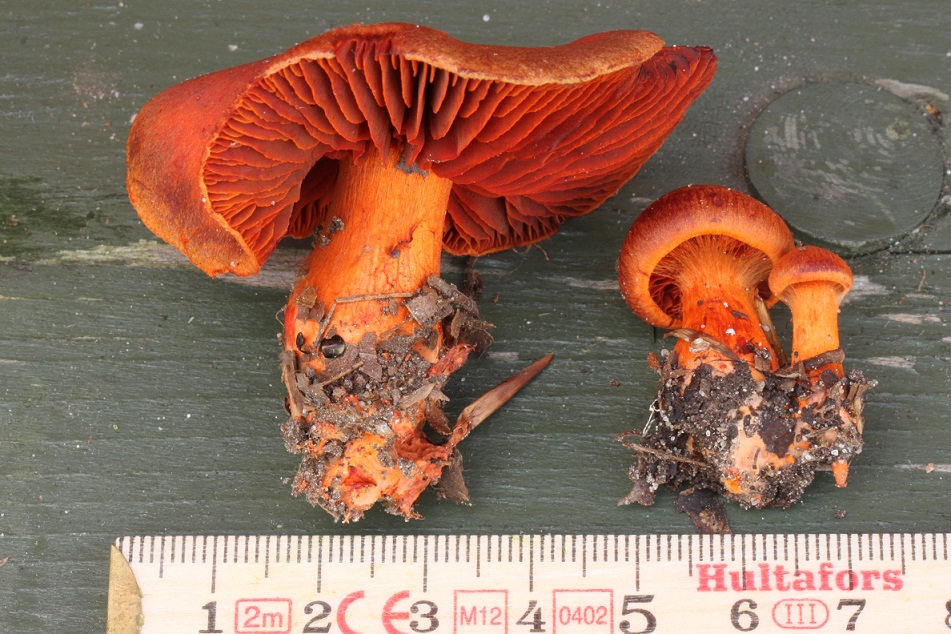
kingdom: Fungi
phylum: Basidiomycota
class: Agaricomycetes
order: Agaricales
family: Cortinariaceae
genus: Cortinarius
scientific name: Cortinarius cinnabarinus
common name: cinnober-slørhat
